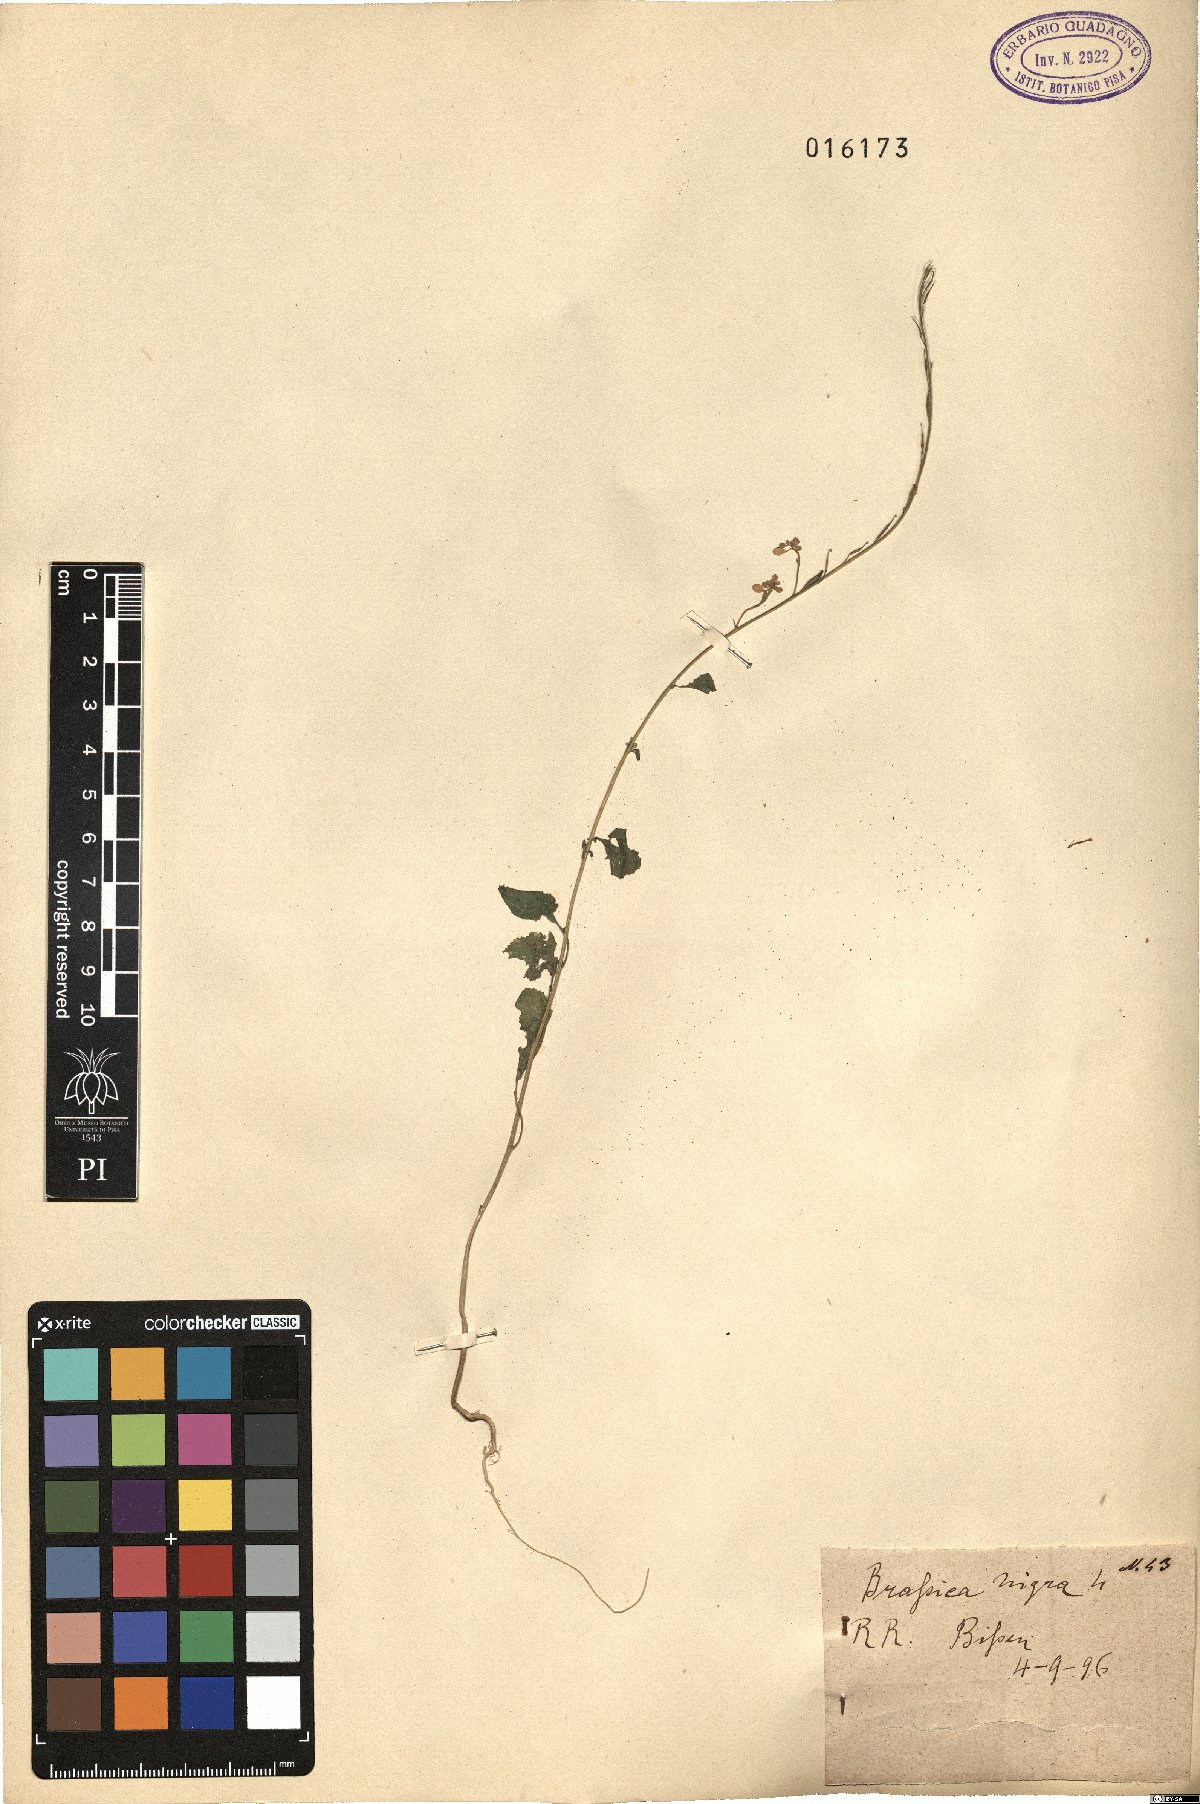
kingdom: Plantae
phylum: Tracheophyta
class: Magnoliopsida
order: Brassicales
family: Brassicaceae
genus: Brassica
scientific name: Brassica nigra
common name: Black mustard
